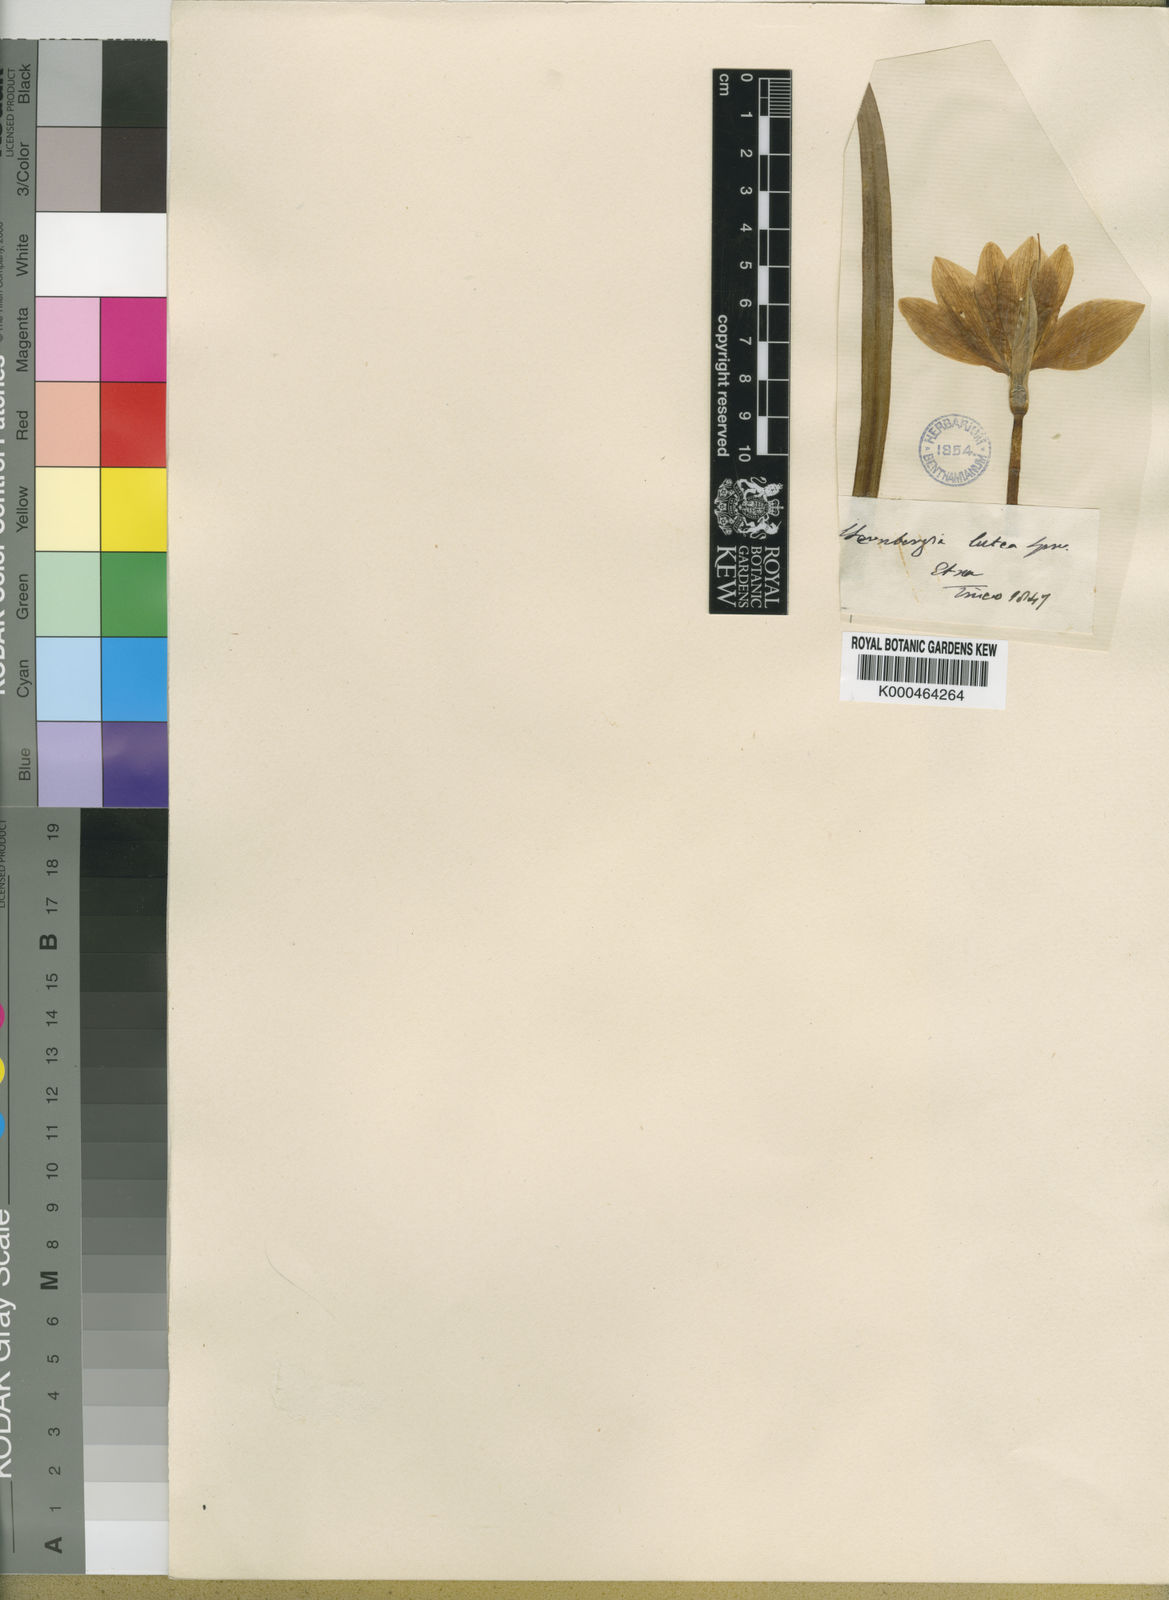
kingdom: Plantae
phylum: Tracheophyta
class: Liliopsida
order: Asparagales
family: Amaryllidaceae
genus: Sternbergia
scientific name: Sternbergia
